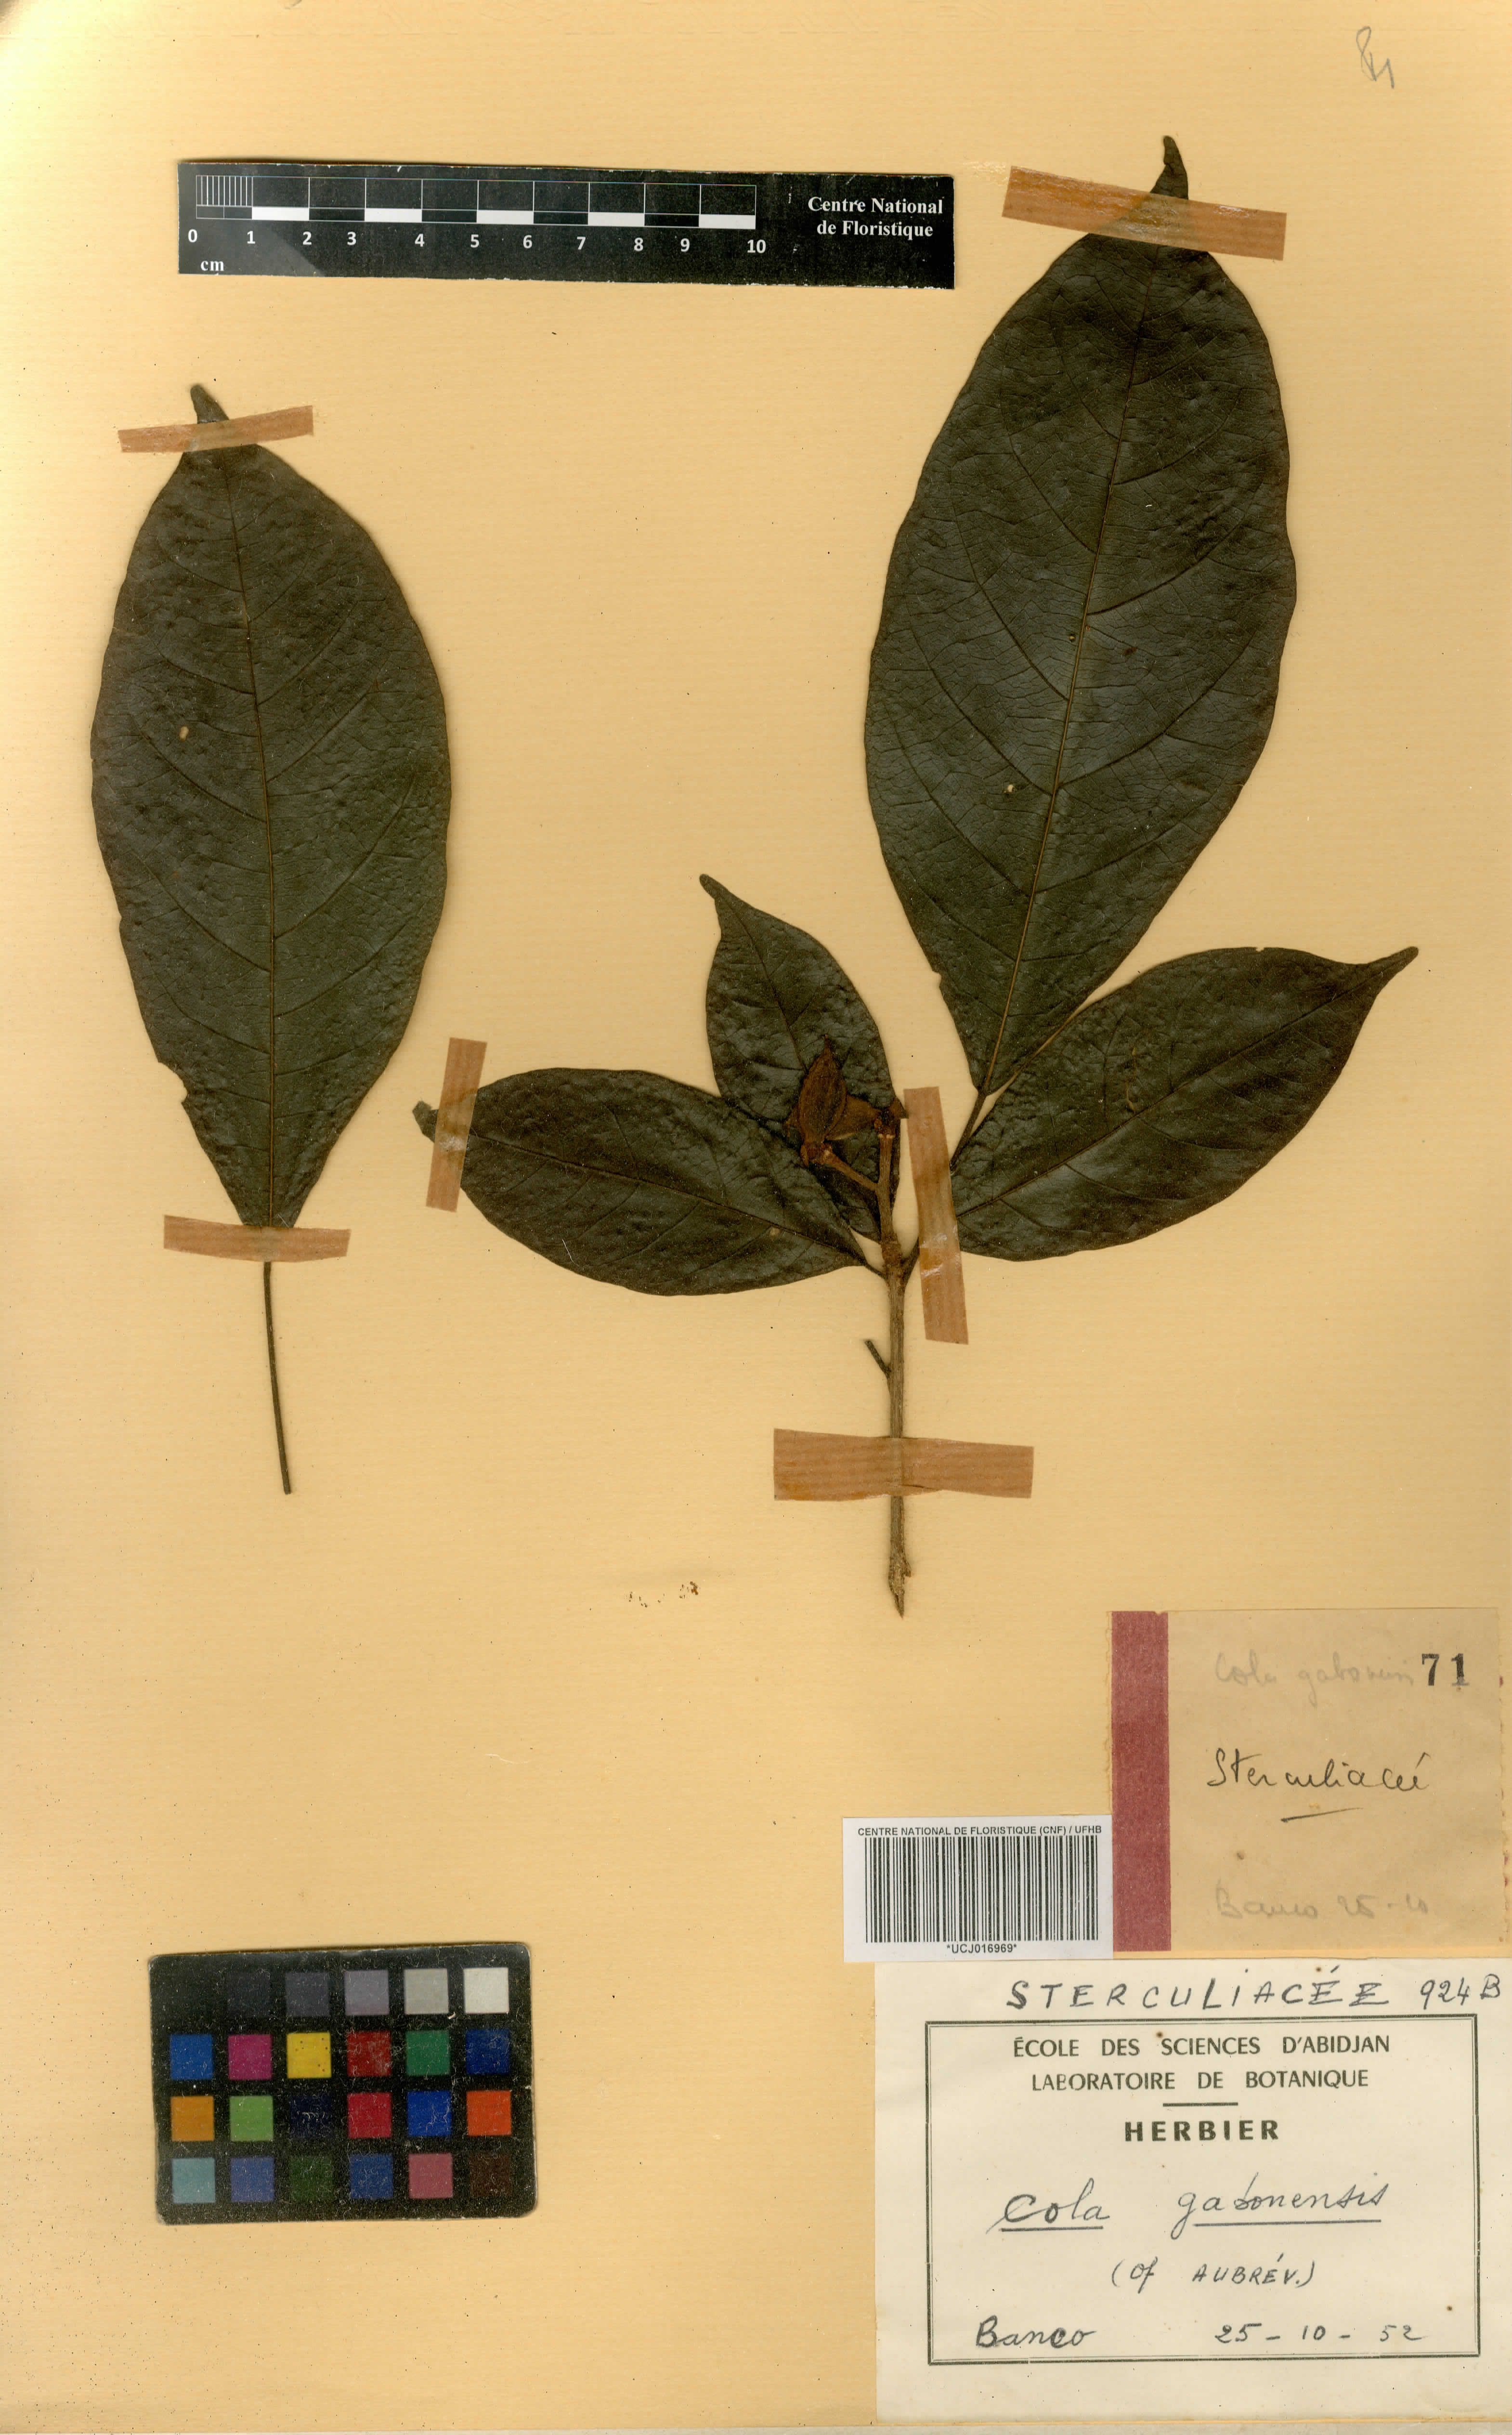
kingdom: Plantae
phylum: Tracheophyta
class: Magnoliopsida
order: Malvales
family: Malvaceae
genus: Cola
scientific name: Cola gabonensis
